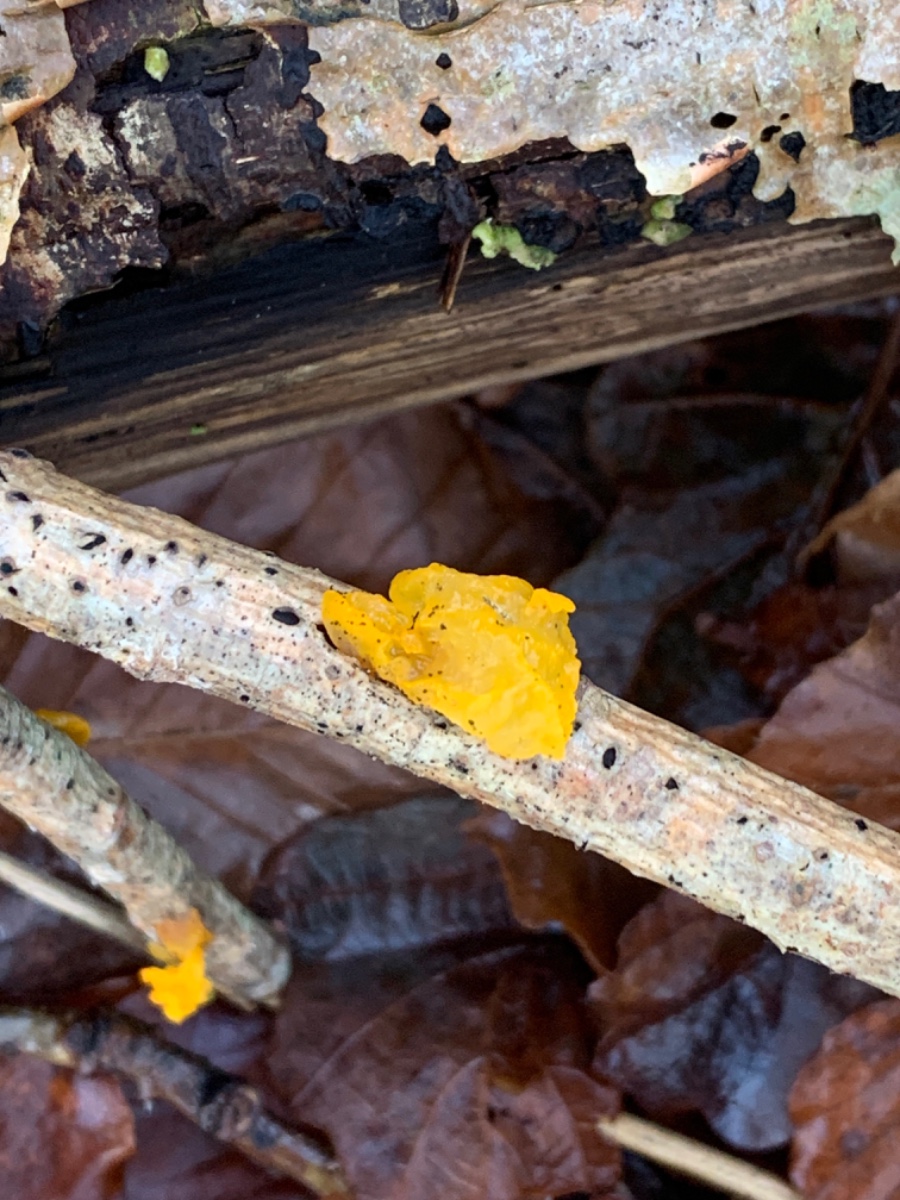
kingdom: Fungi
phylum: Basidiomycota
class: Tremellomycetes
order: Tremellales
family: Tremellaceae
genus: Tremella
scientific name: Tremella mesenterica
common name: gul bævresvamp
